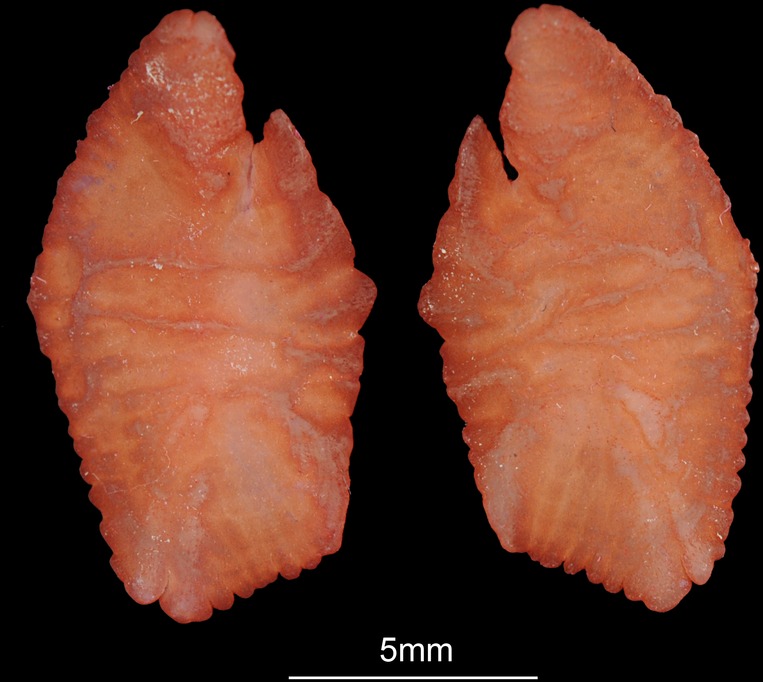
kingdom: Animalia
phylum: Chordata
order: Perciformes
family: Sparidae
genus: Argyrozona
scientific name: Argyrozona argyrozona
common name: Carpenter
